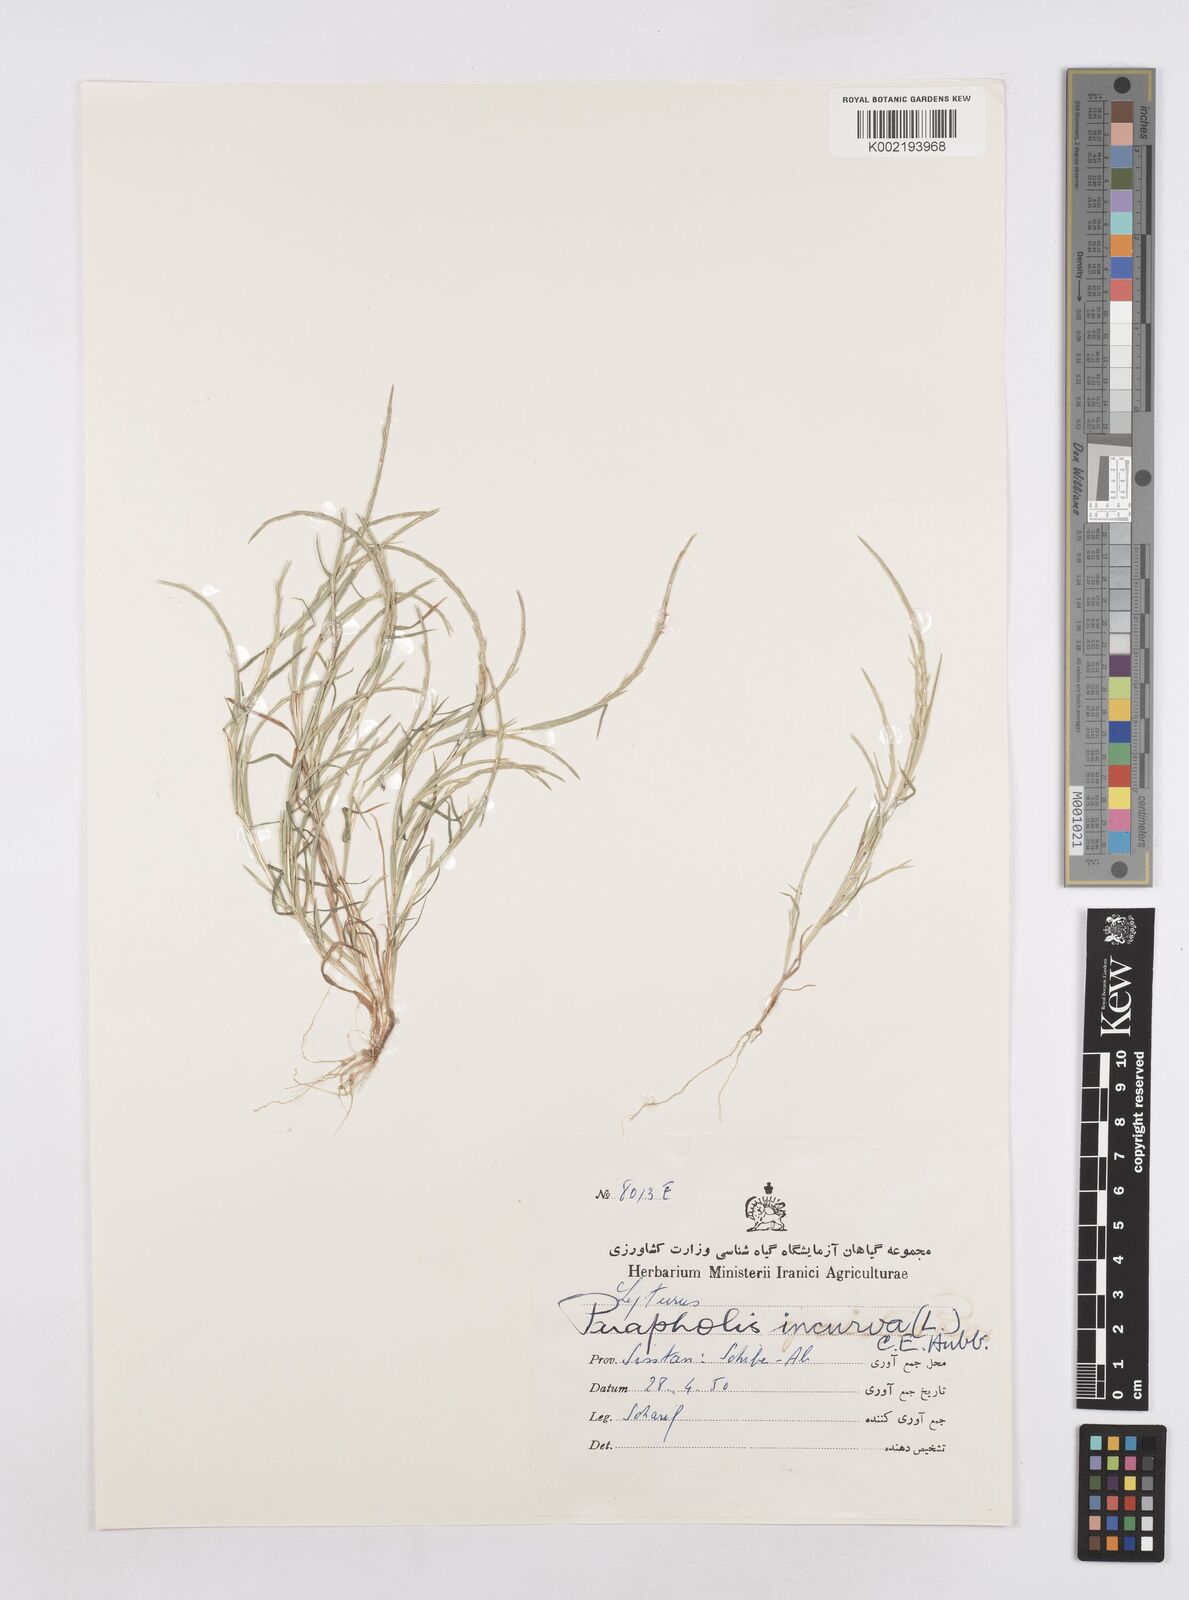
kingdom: Plantae
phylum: Tracheophyta
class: Liliopsida
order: Poales
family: Poaceae
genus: Parapholis
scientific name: Parapholis incurva
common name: Curved sicklegrass
